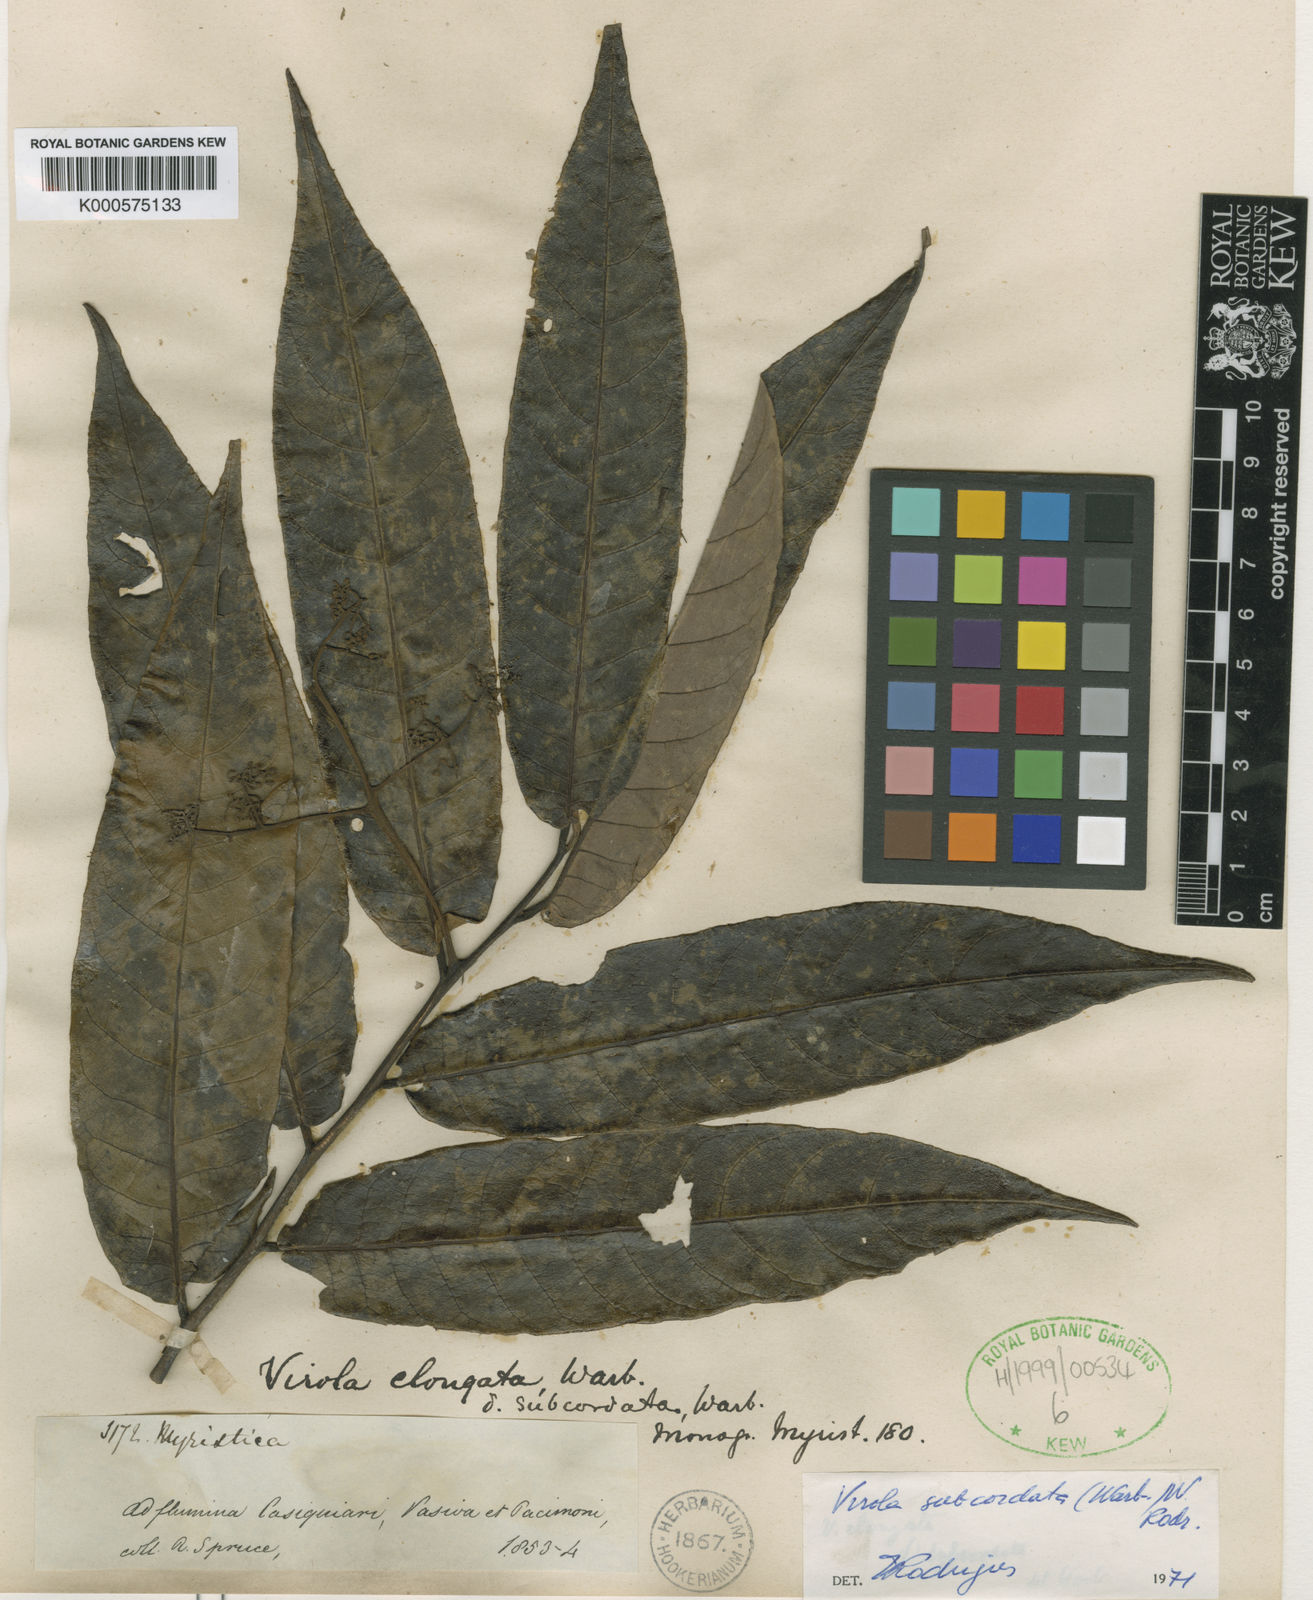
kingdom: Plantae
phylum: Tracheophyta
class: Magnoliopsida
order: Magnoliales
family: Myristicaceae
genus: Virola
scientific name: Virola elongata
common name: Sacred virola
